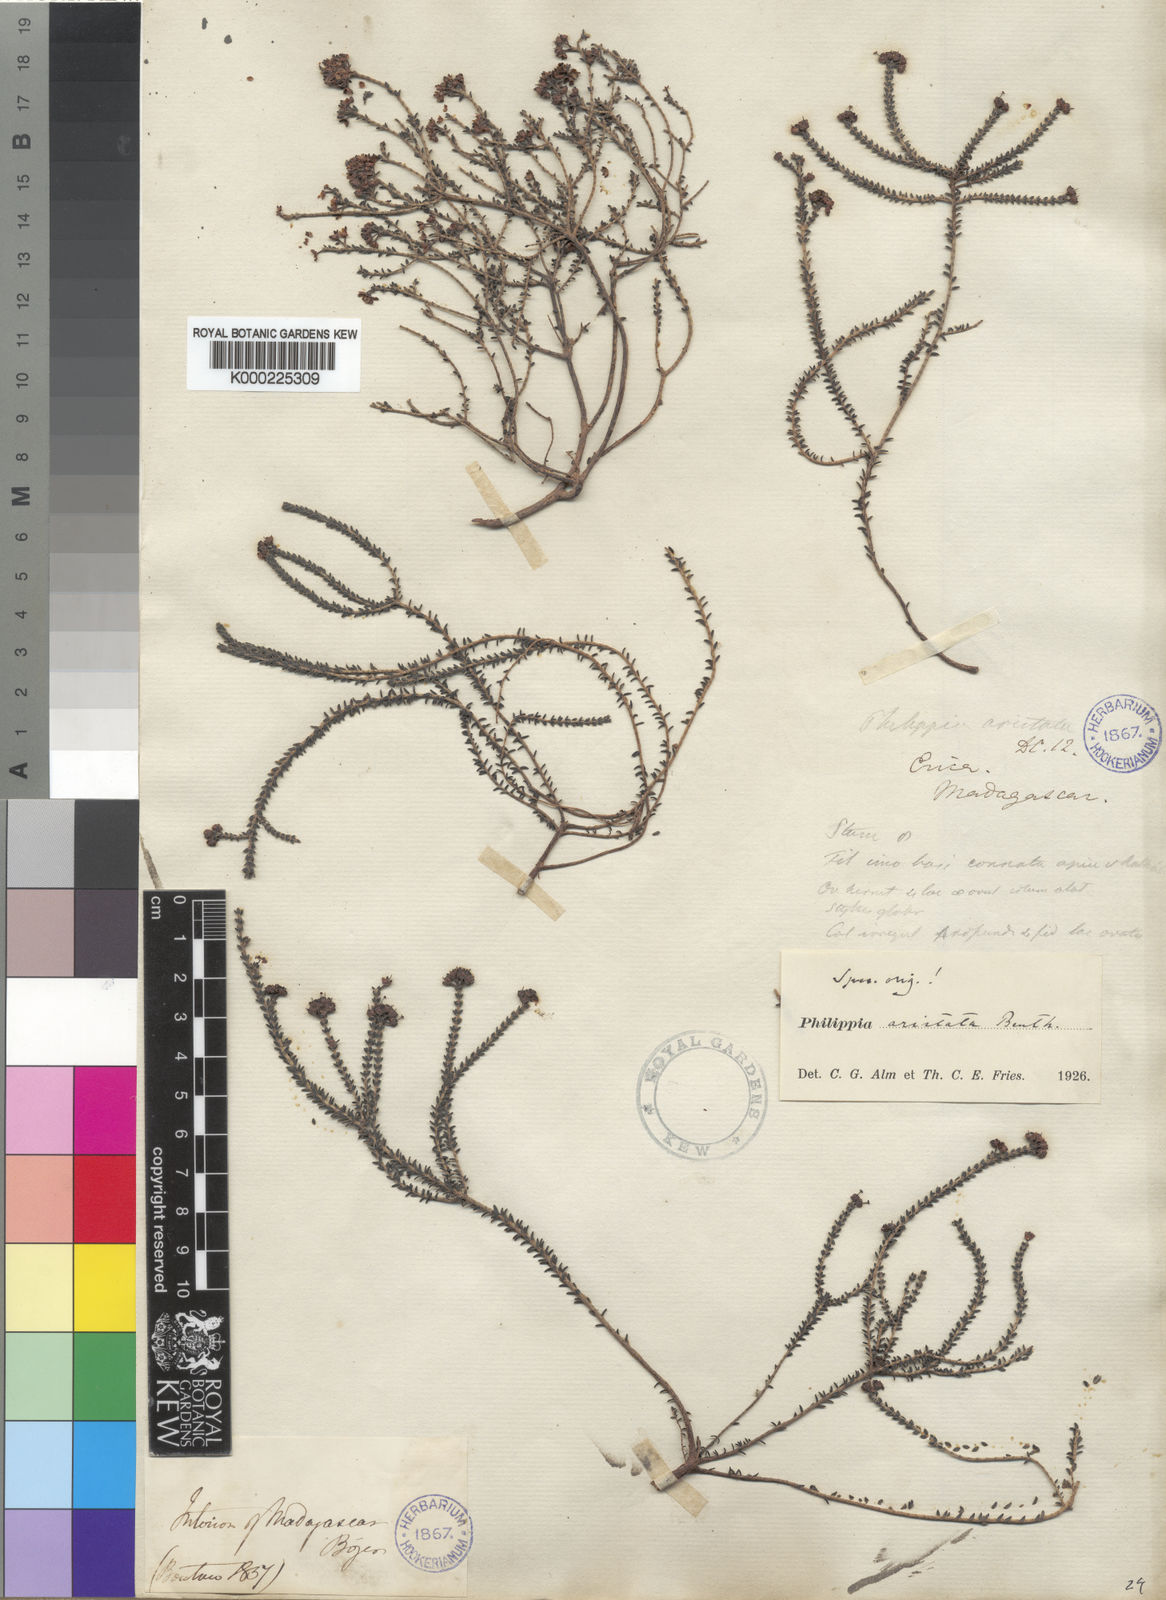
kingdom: Plantae
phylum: Tracheophyta
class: Magnoliopsida
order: Ericales
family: Ericaceae
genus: Erica
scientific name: Erica bojeri
